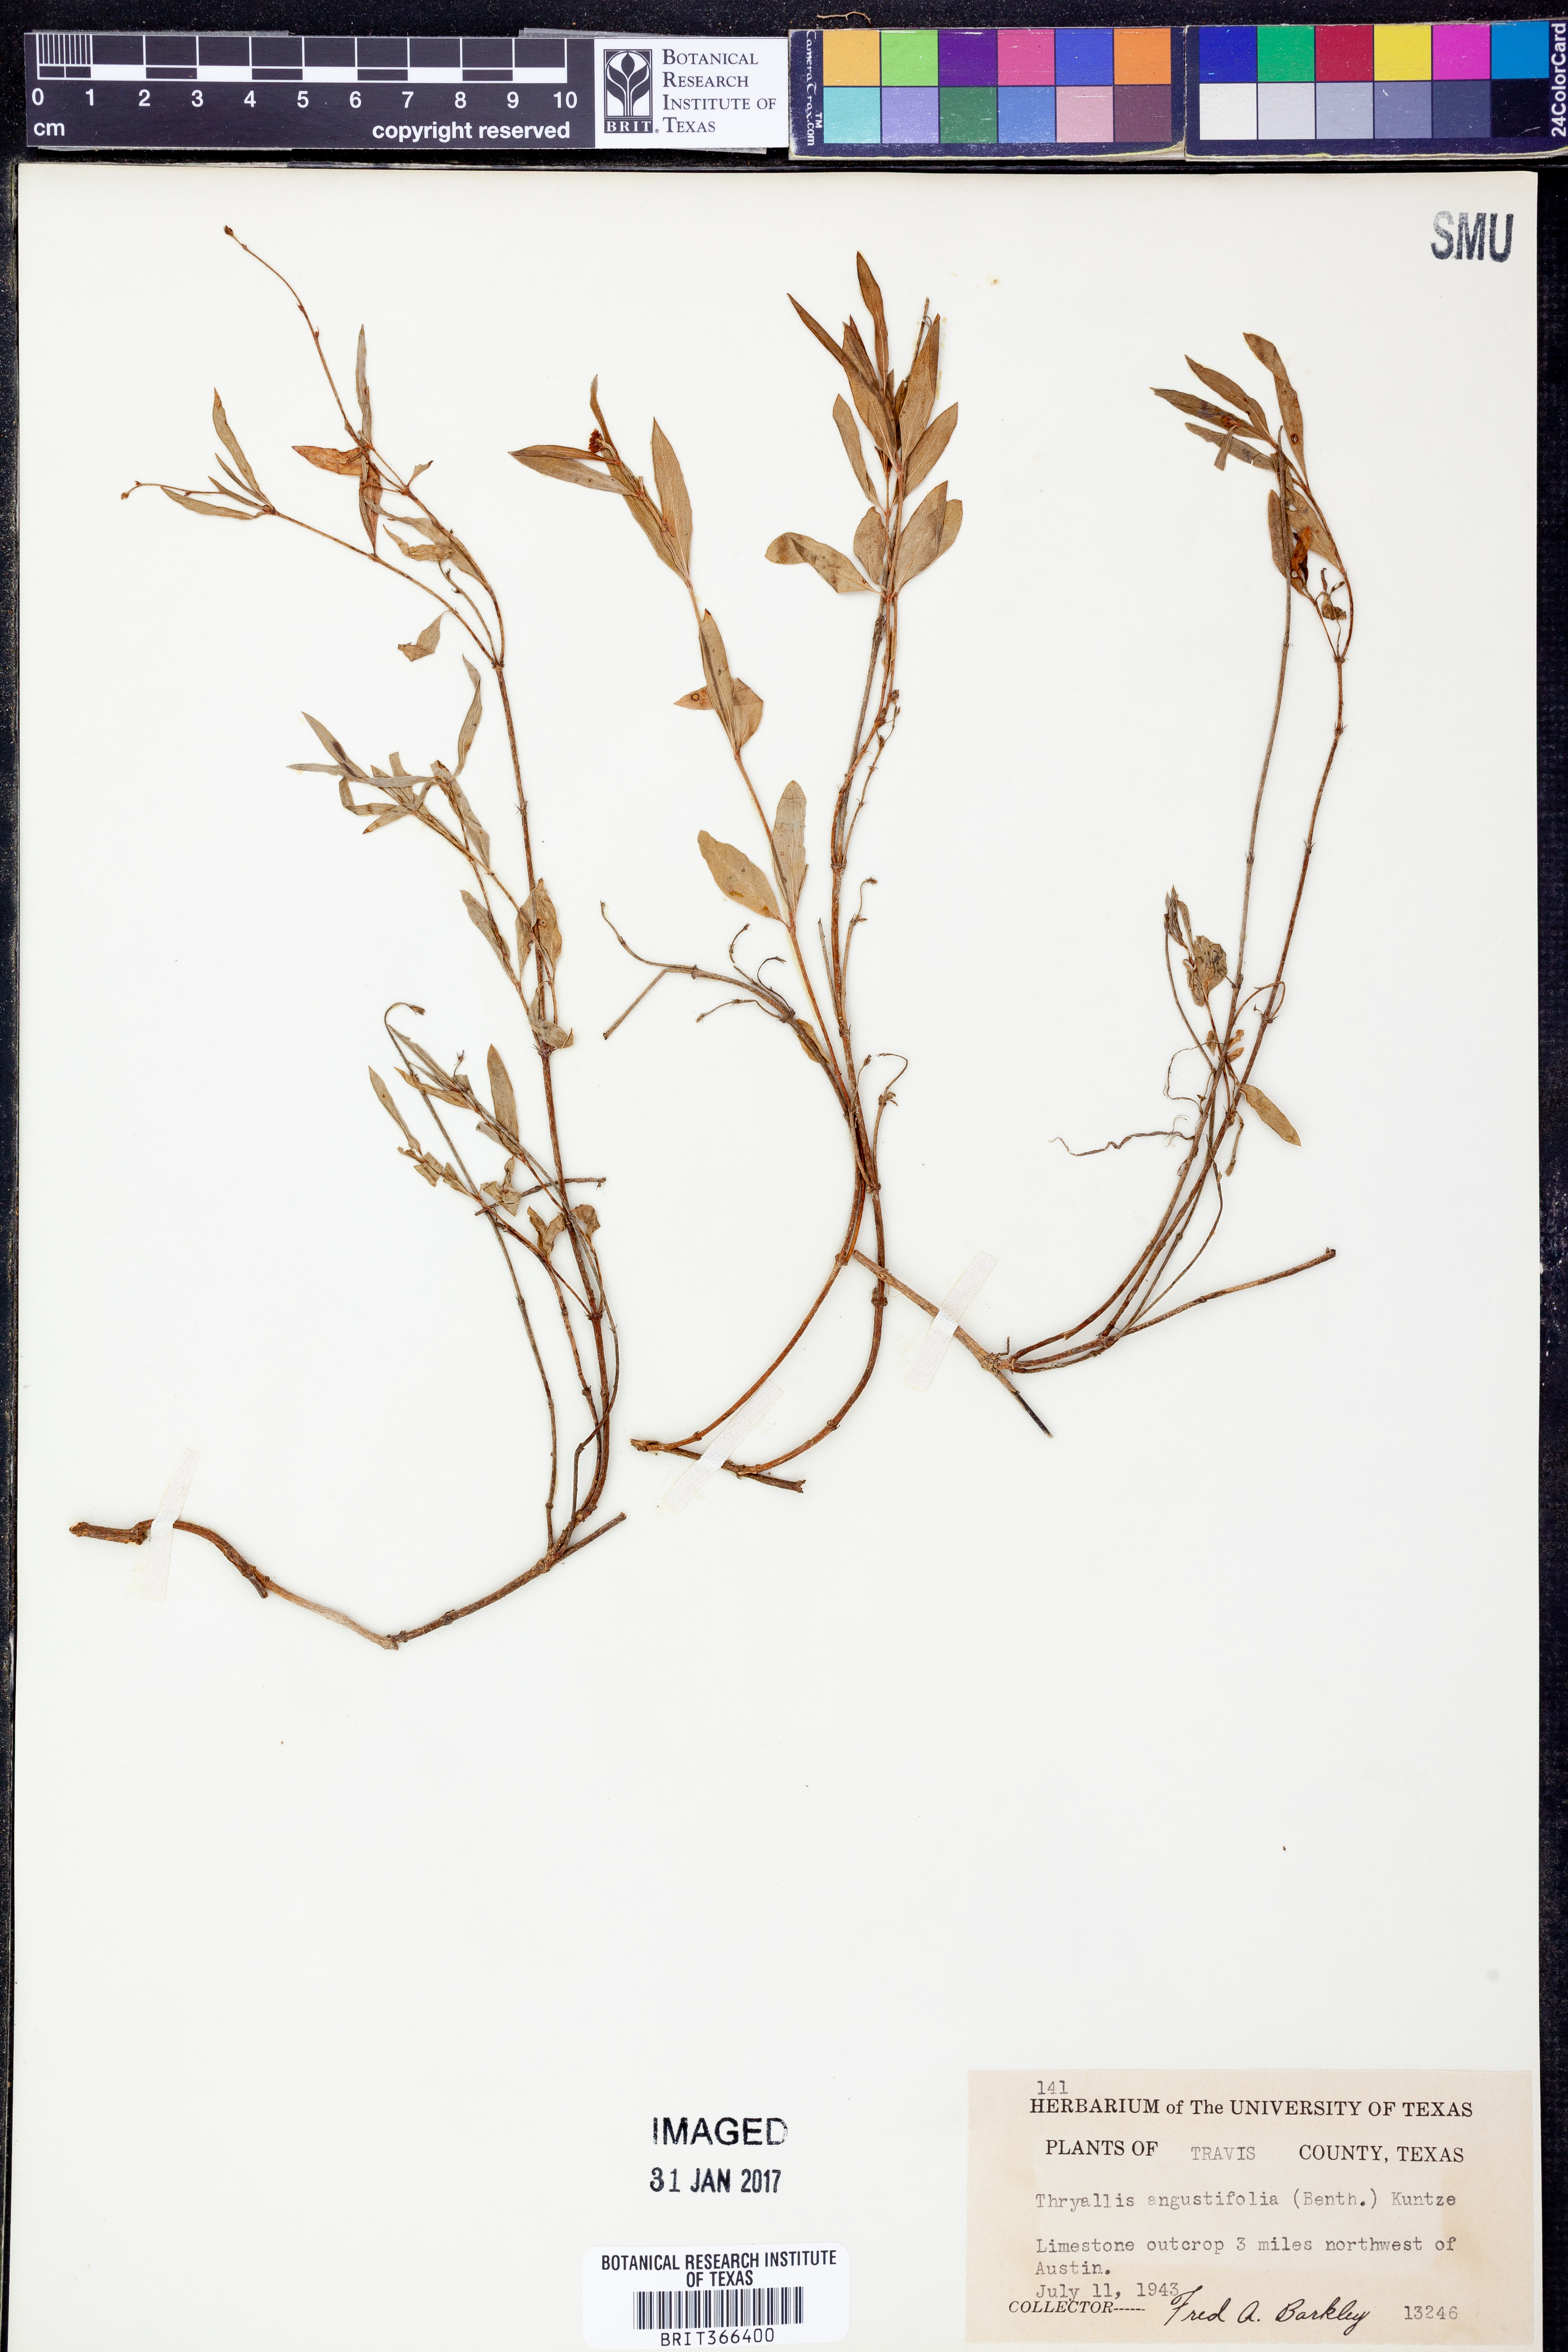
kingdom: Plantae
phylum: Tracheophyta
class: Magnoliopsida
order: Malpighiales
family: Malpighiaceae
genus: Galphimia
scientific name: Galphimia angustifolia
